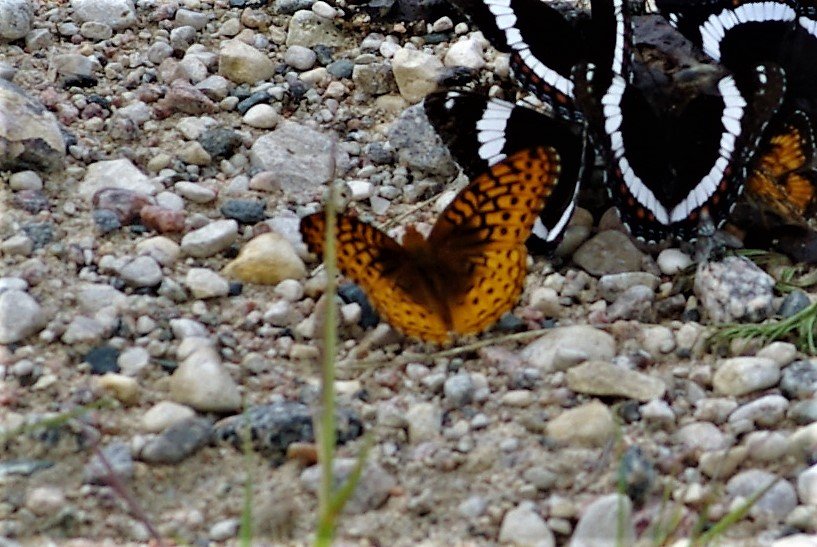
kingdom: Animalia
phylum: Arthropoda
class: Insecta
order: Lepidoptera
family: Nymphalidae
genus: Speyeria
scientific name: Speyeria cybele
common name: Great Spangled Fritillary
